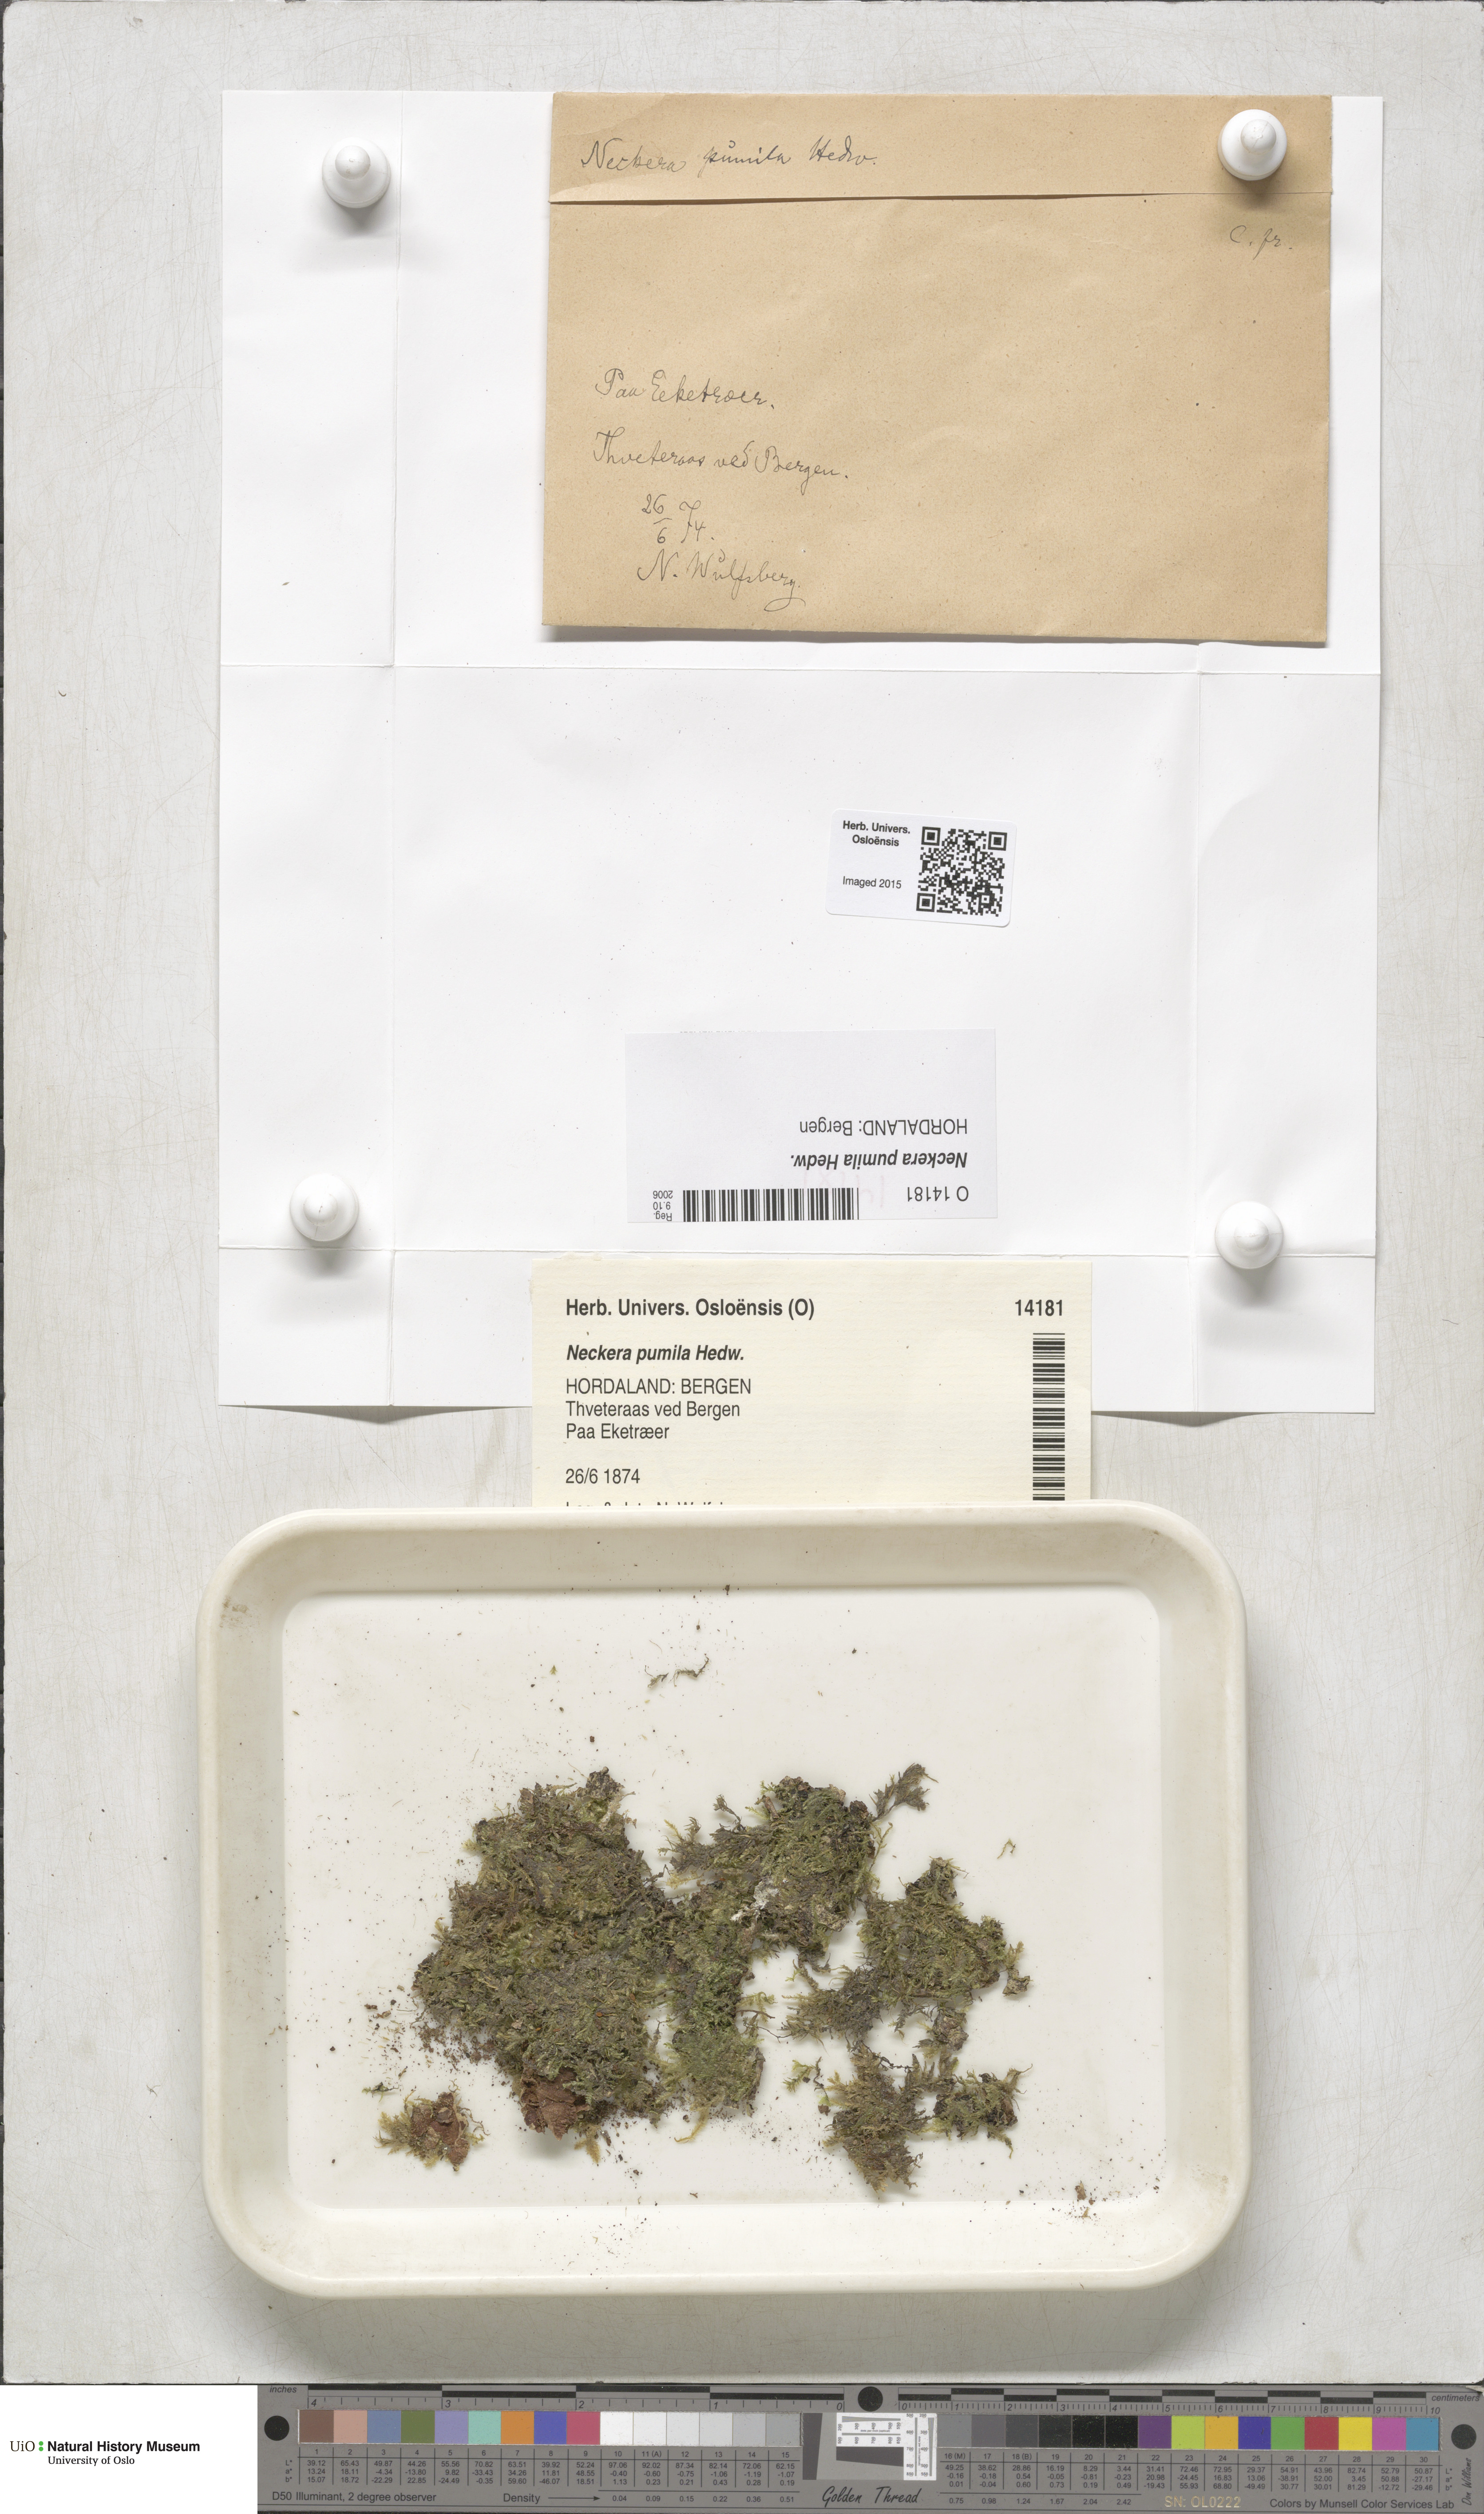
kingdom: Plantae
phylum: Bryophyta
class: Bryopsida
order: Hypnales
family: Neckeraceae
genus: Neckera
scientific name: Neckera pumila
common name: Dwarf neckera
